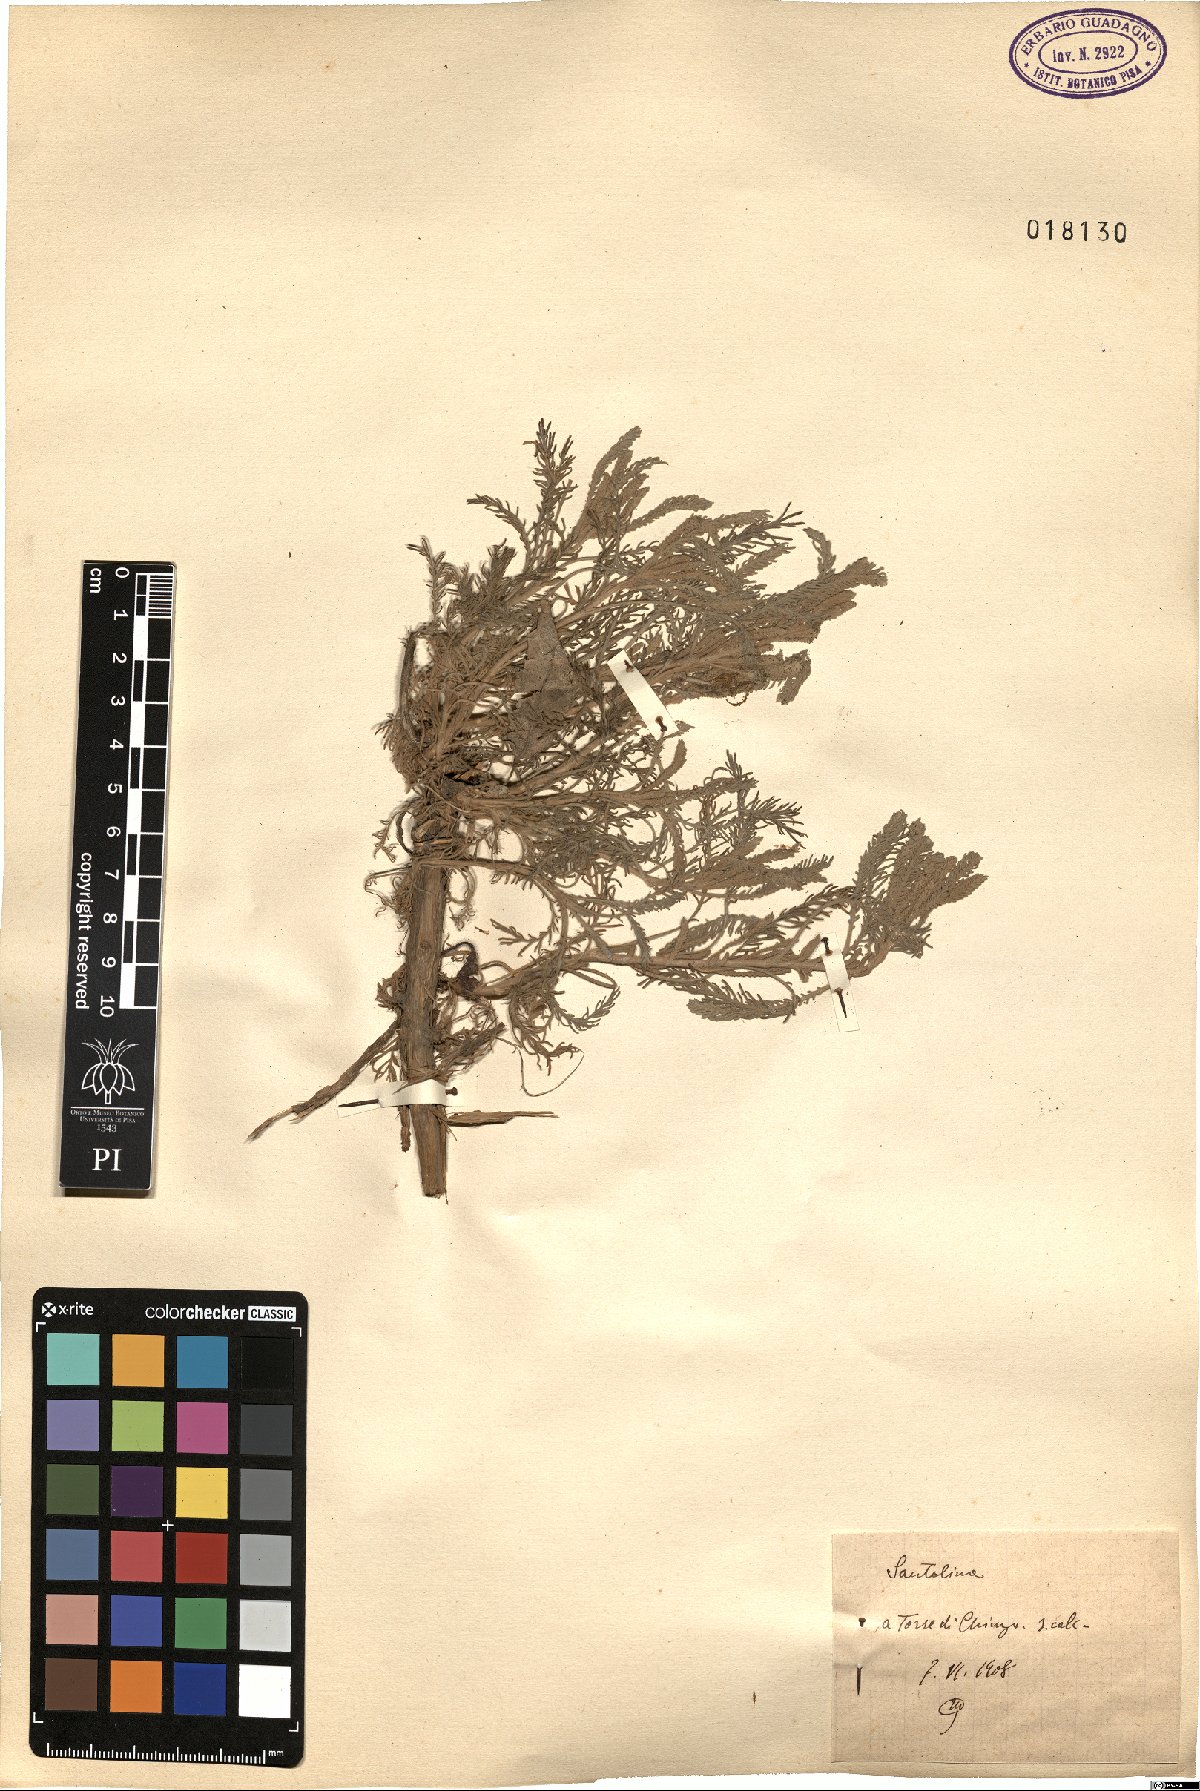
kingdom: Plantae
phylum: Tracheophyta
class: Magnoliopsida
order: Asterales
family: Asteraceae
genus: Santolina
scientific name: Santolina
